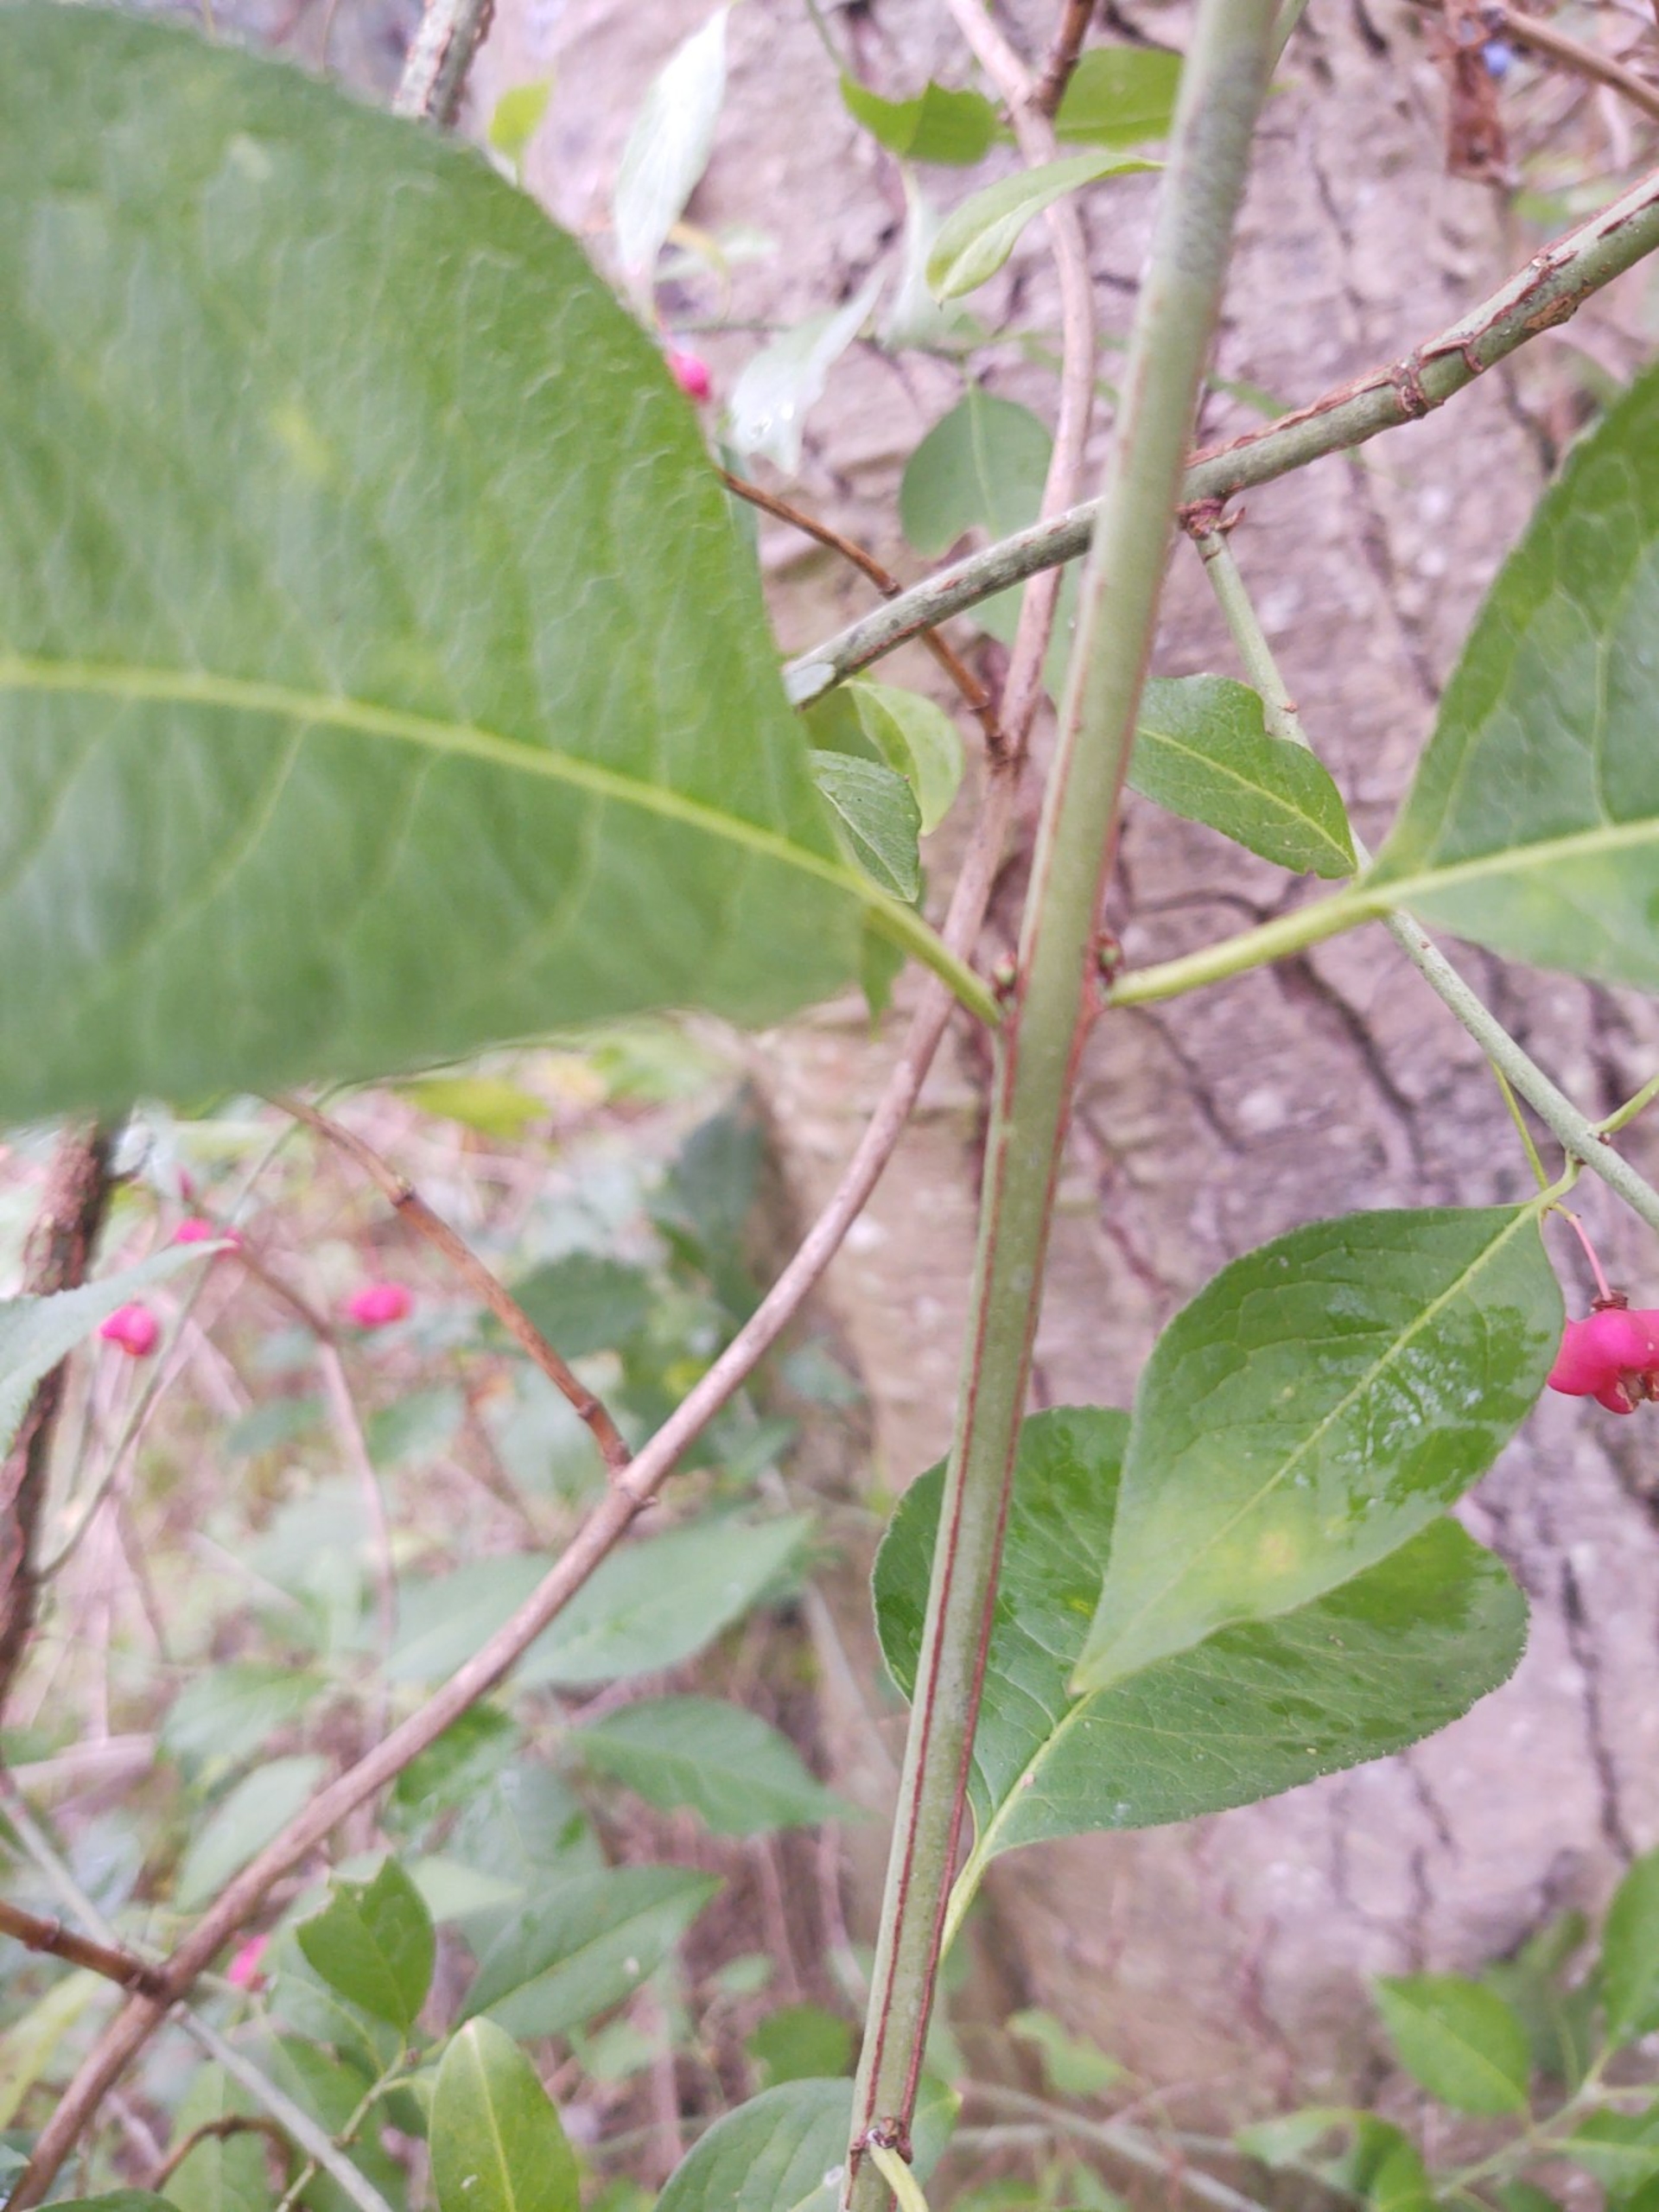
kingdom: Plantae
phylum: Tracheophyta
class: Magnoliopsida
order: Celastrales
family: Celastraceae
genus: Euonymus
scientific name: Euonymus europaeus
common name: Benved
